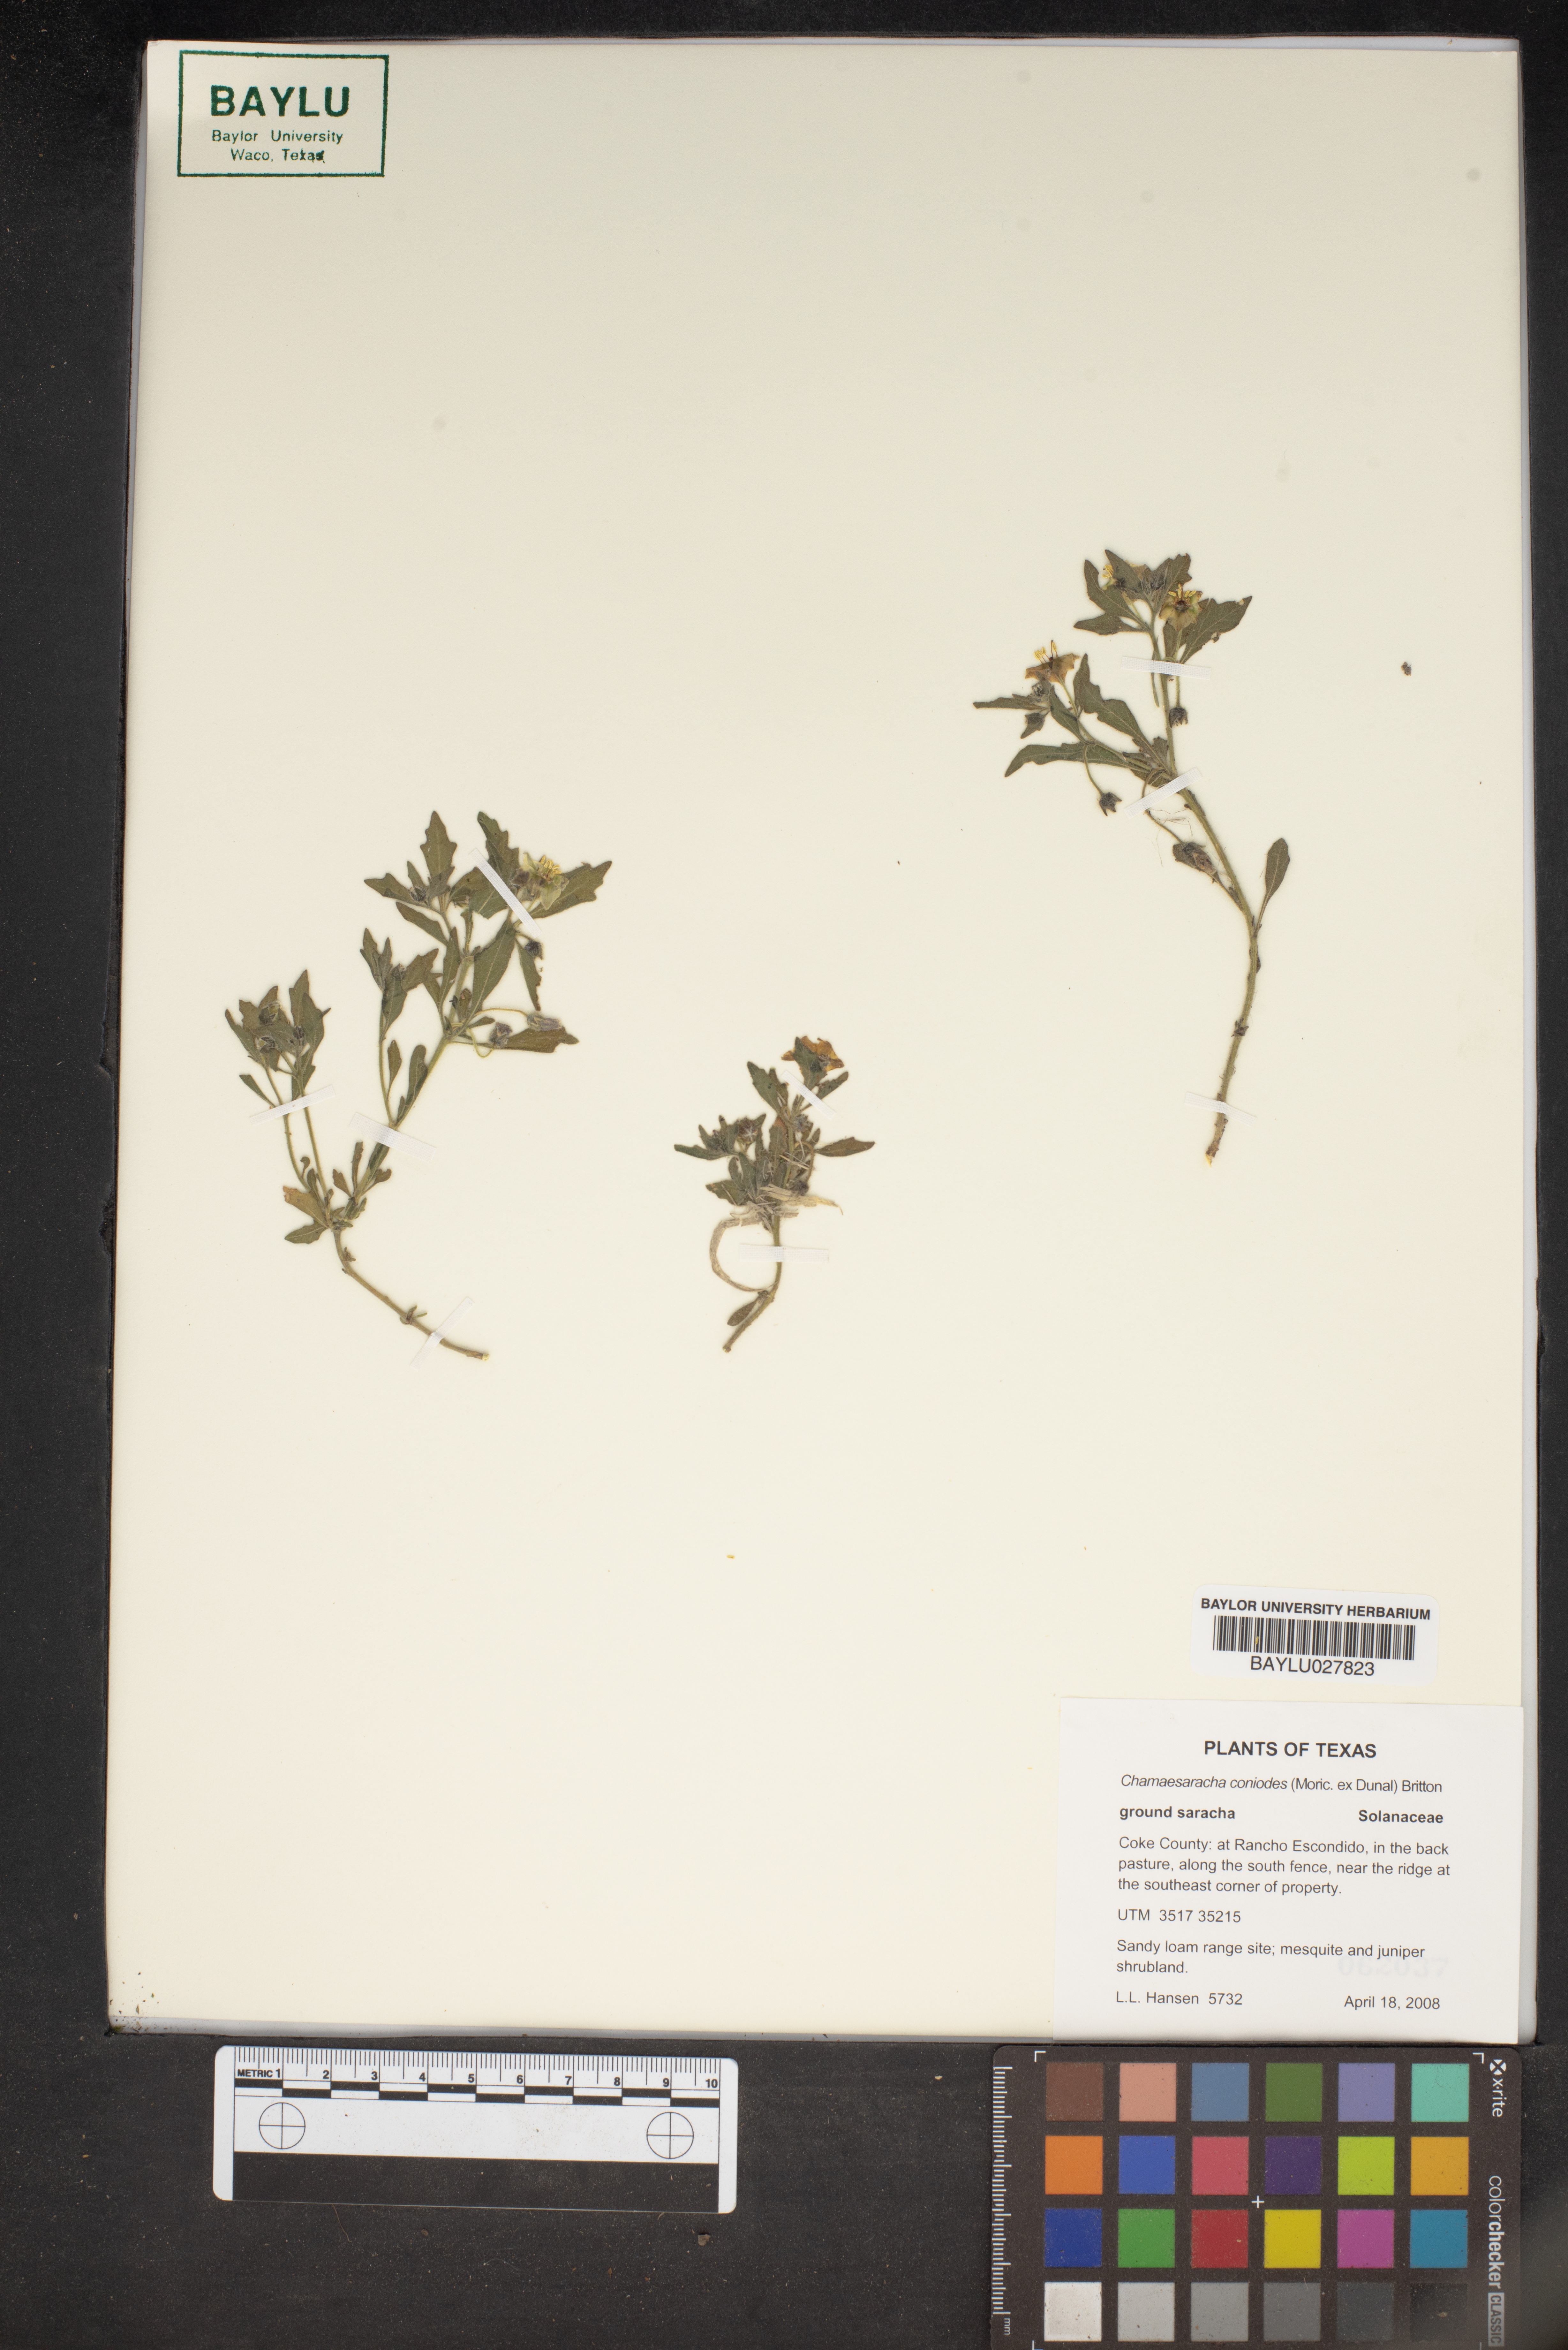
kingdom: Plantae
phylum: Tracheophyta
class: Magnoliopsida
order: Solanales
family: Solanaceae
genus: Chamaesaracha
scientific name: Chamaesaracha coniodes
